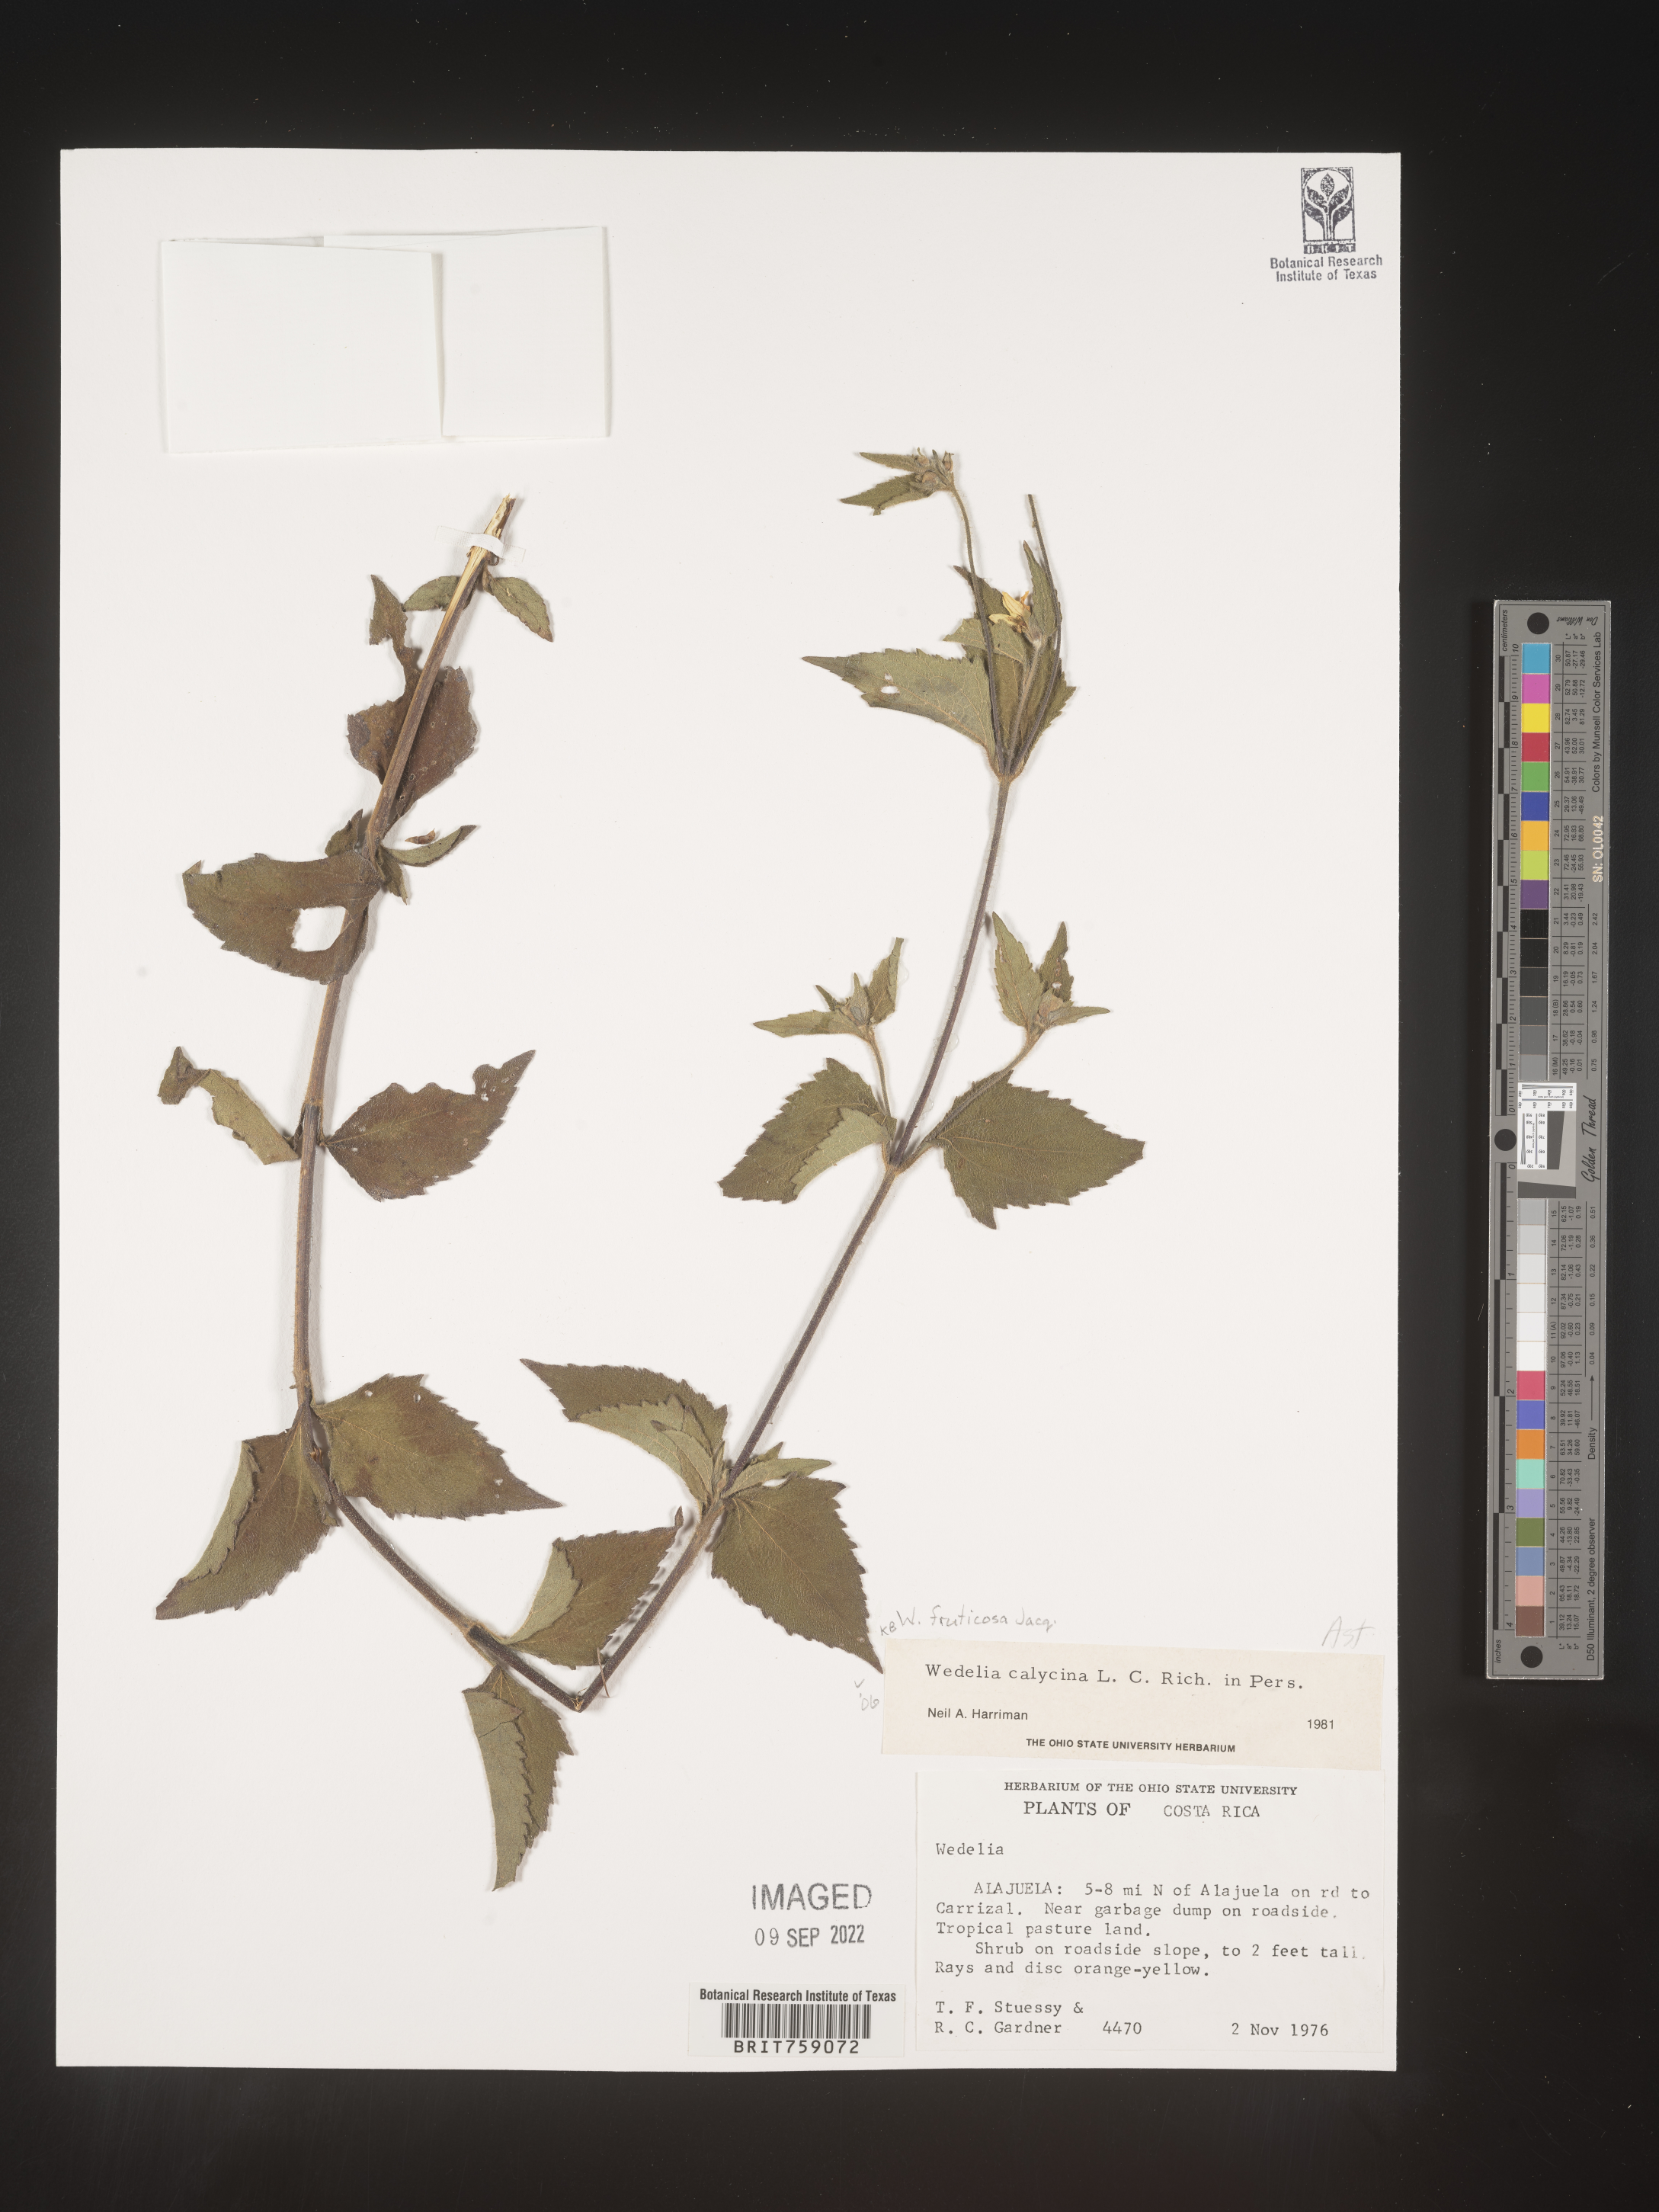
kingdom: Plantae
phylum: Tracheophyta
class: Magnoliopsida
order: Asterales
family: Asteraceae
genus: Wedelia
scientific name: Wedelia
